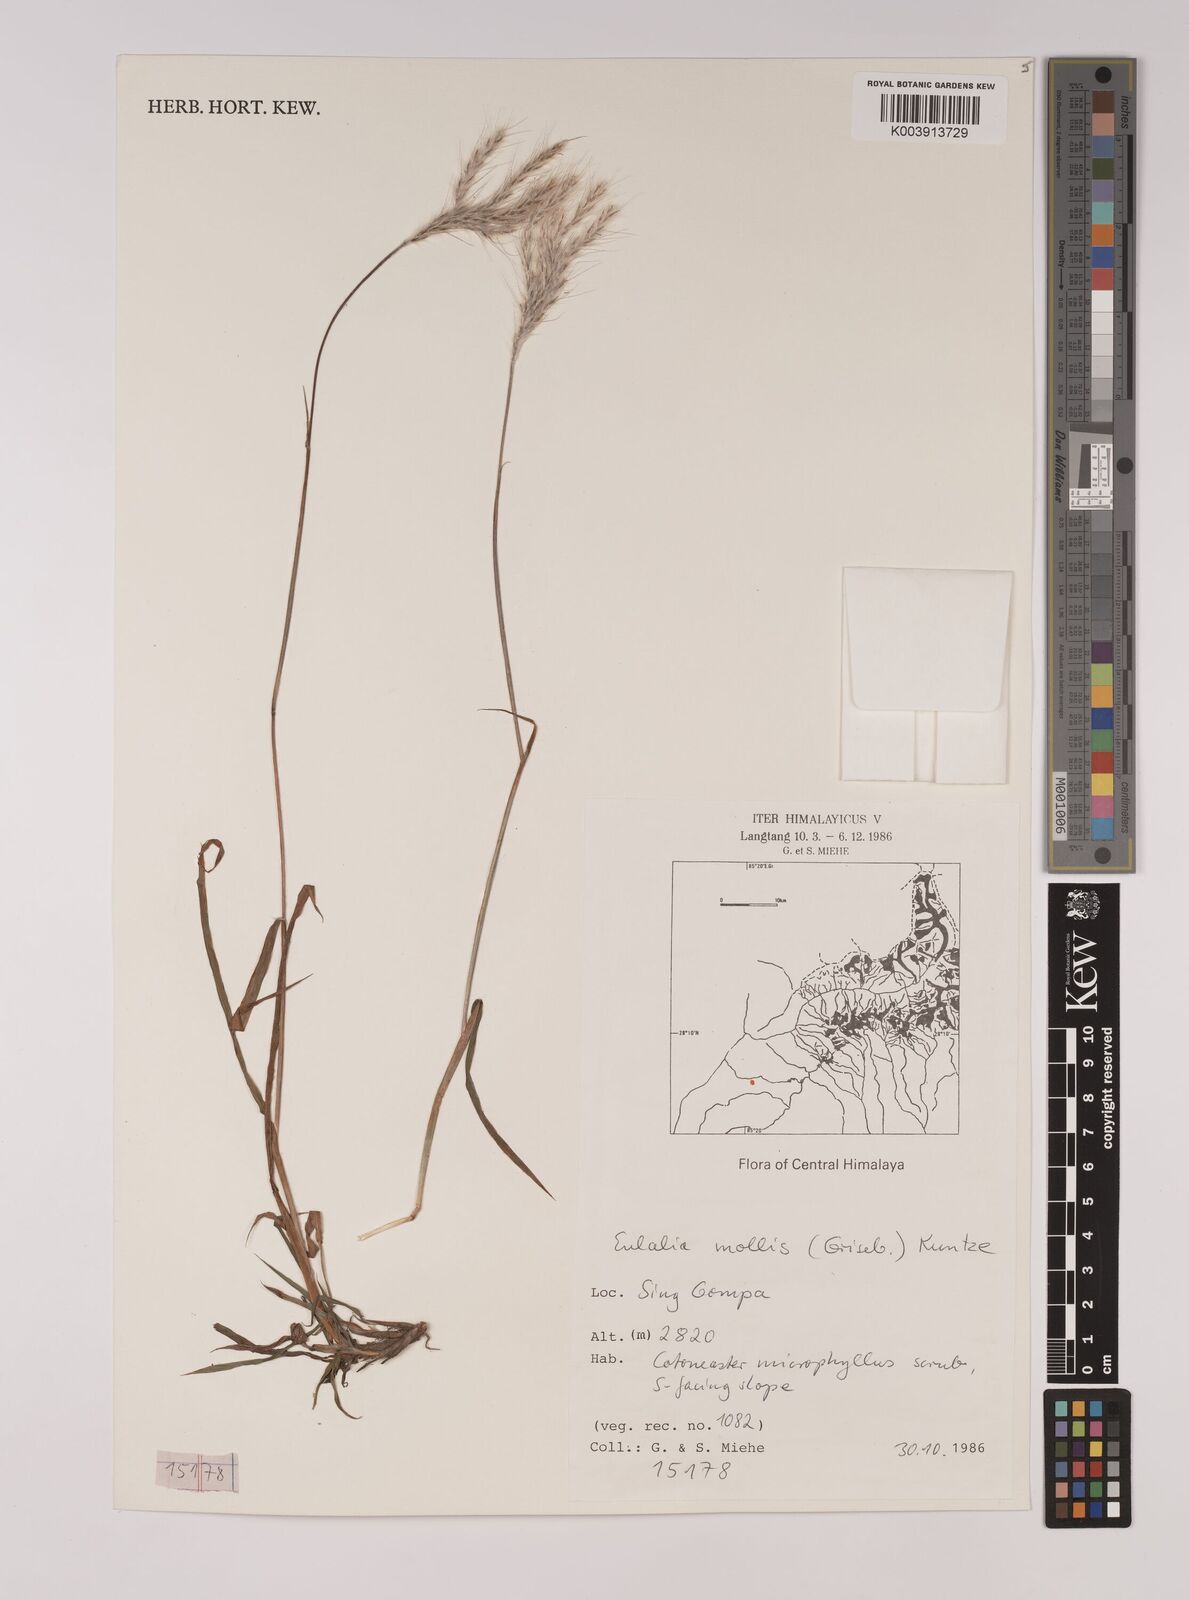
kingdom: Plantae
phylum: Tracheophyta
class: Liliopsida
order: Poales
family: Poaceae
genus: Eulalia
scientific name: Eulalia mollis
